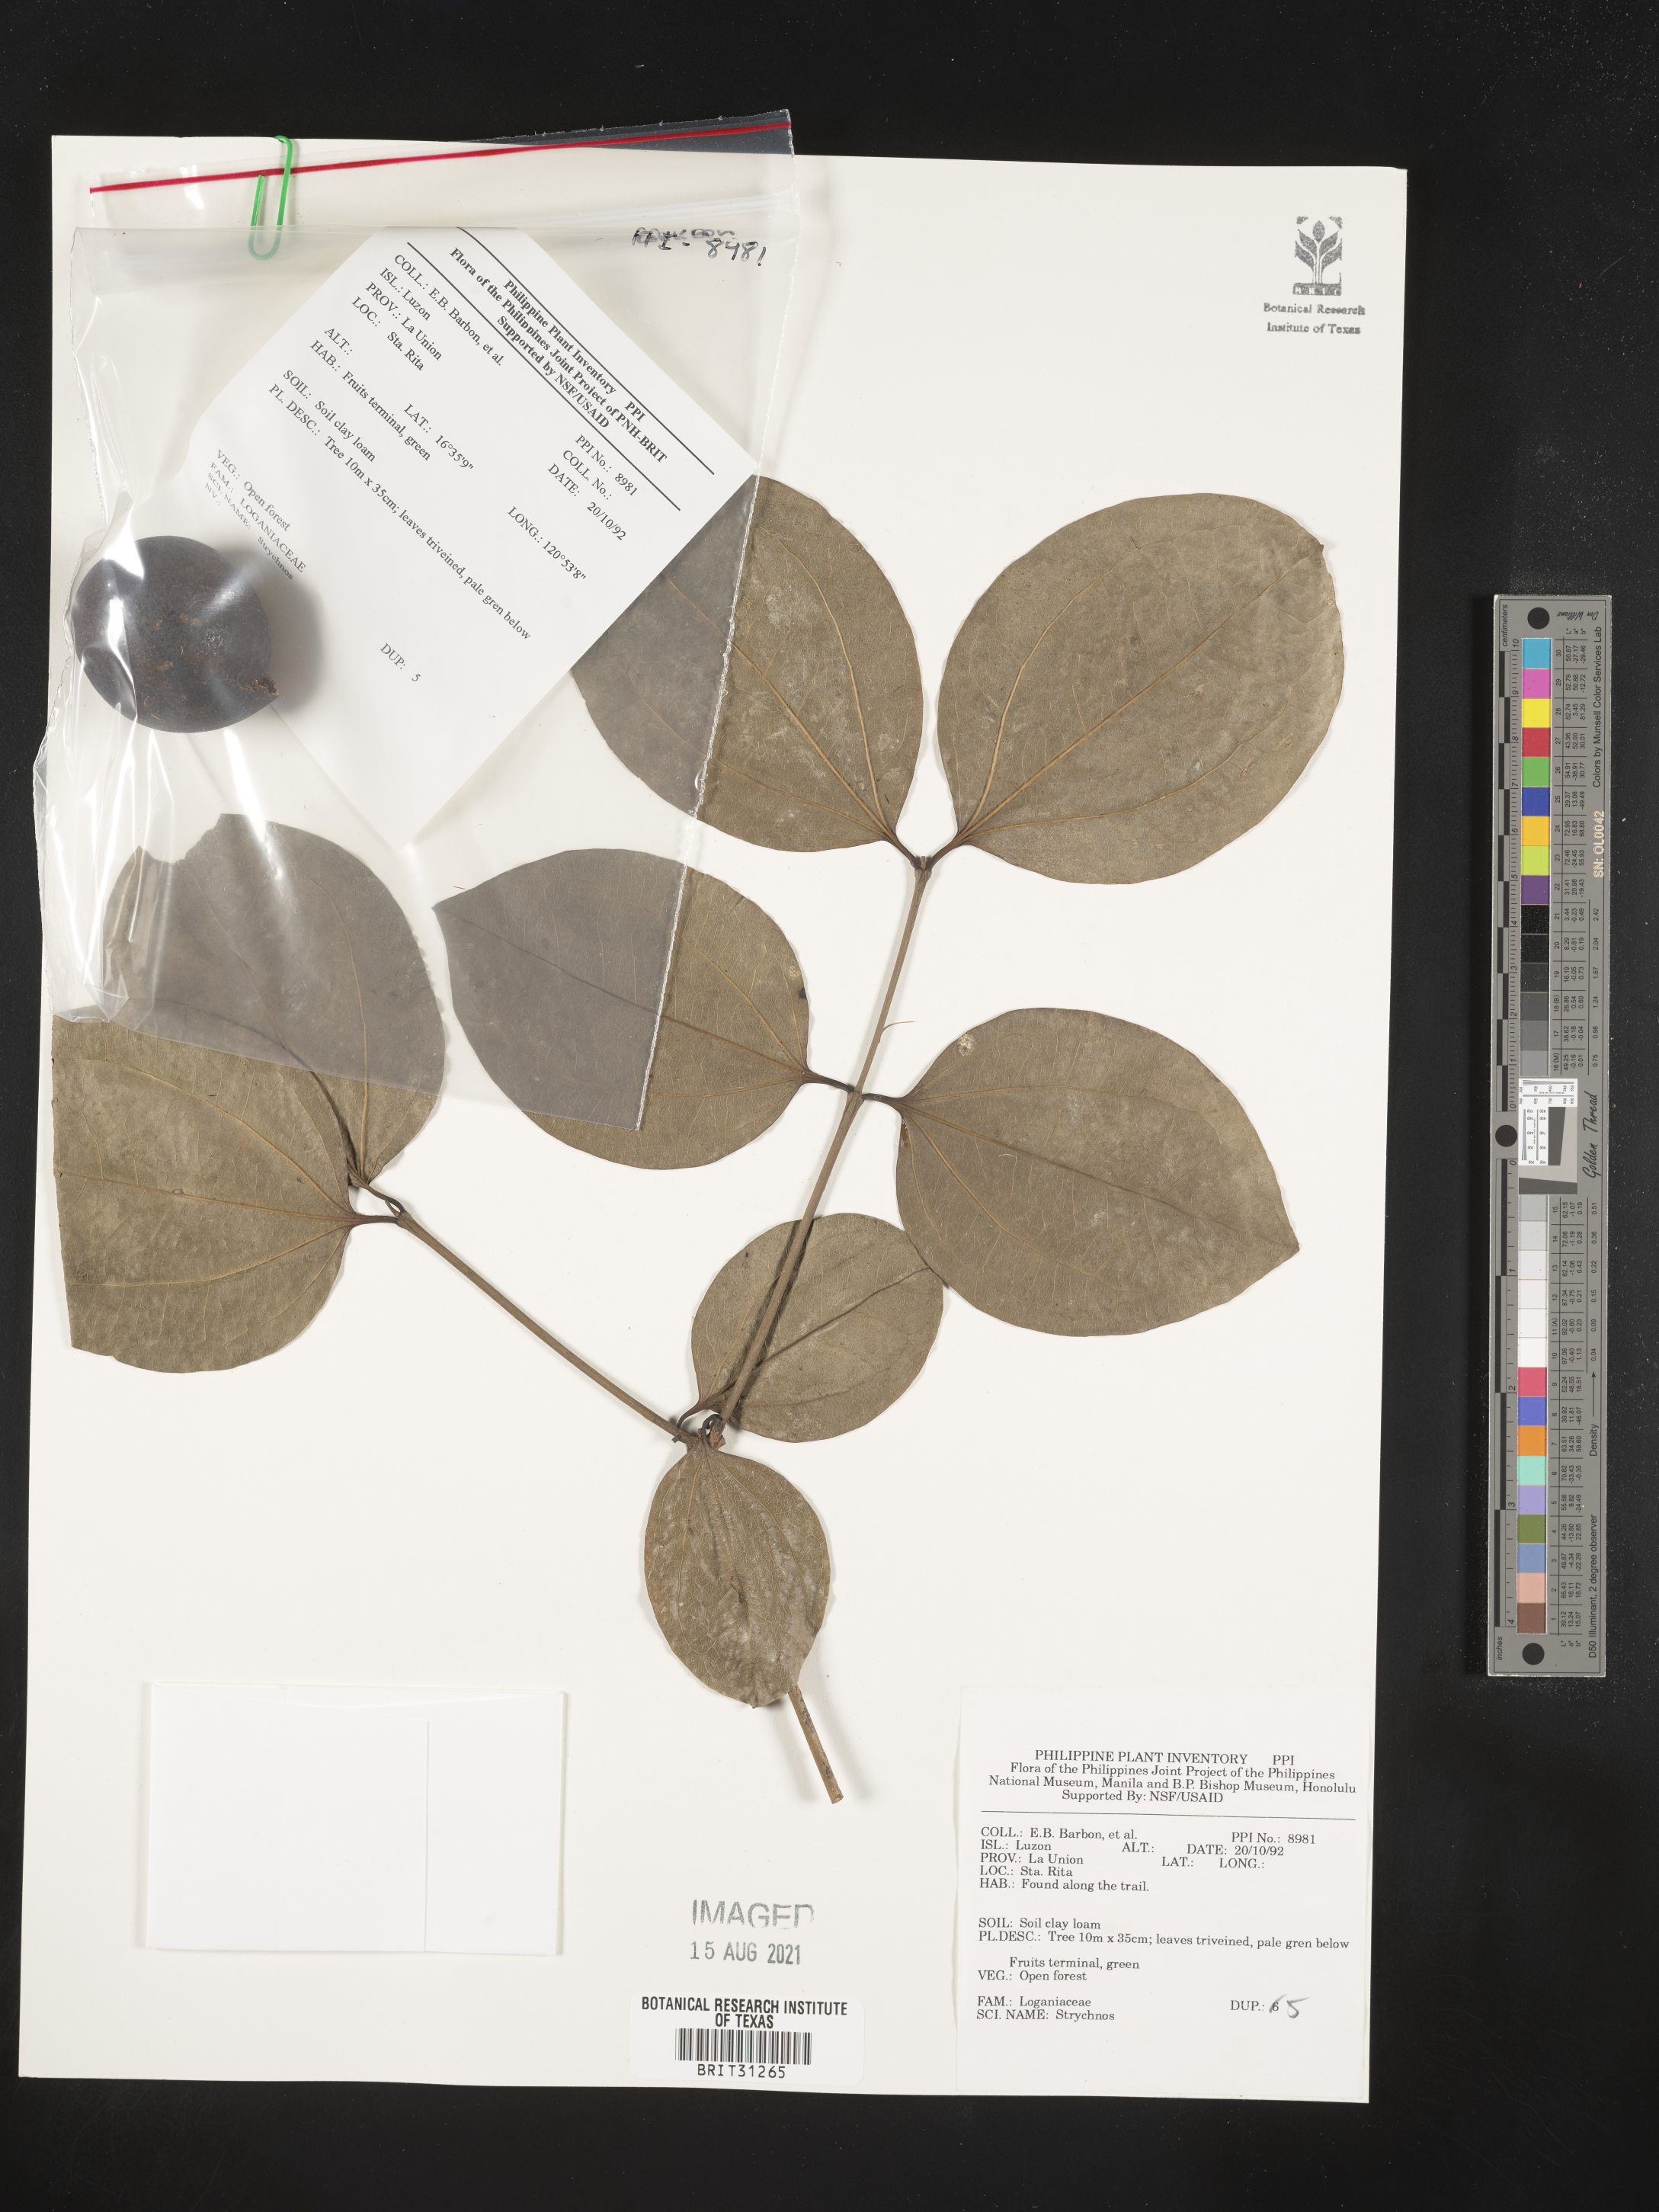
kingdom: Plantae
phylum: Tracheophyta
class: Magnoliopsida
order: Gentianales
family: Loganiaceae
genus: Strychnos
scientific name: Strychnos
